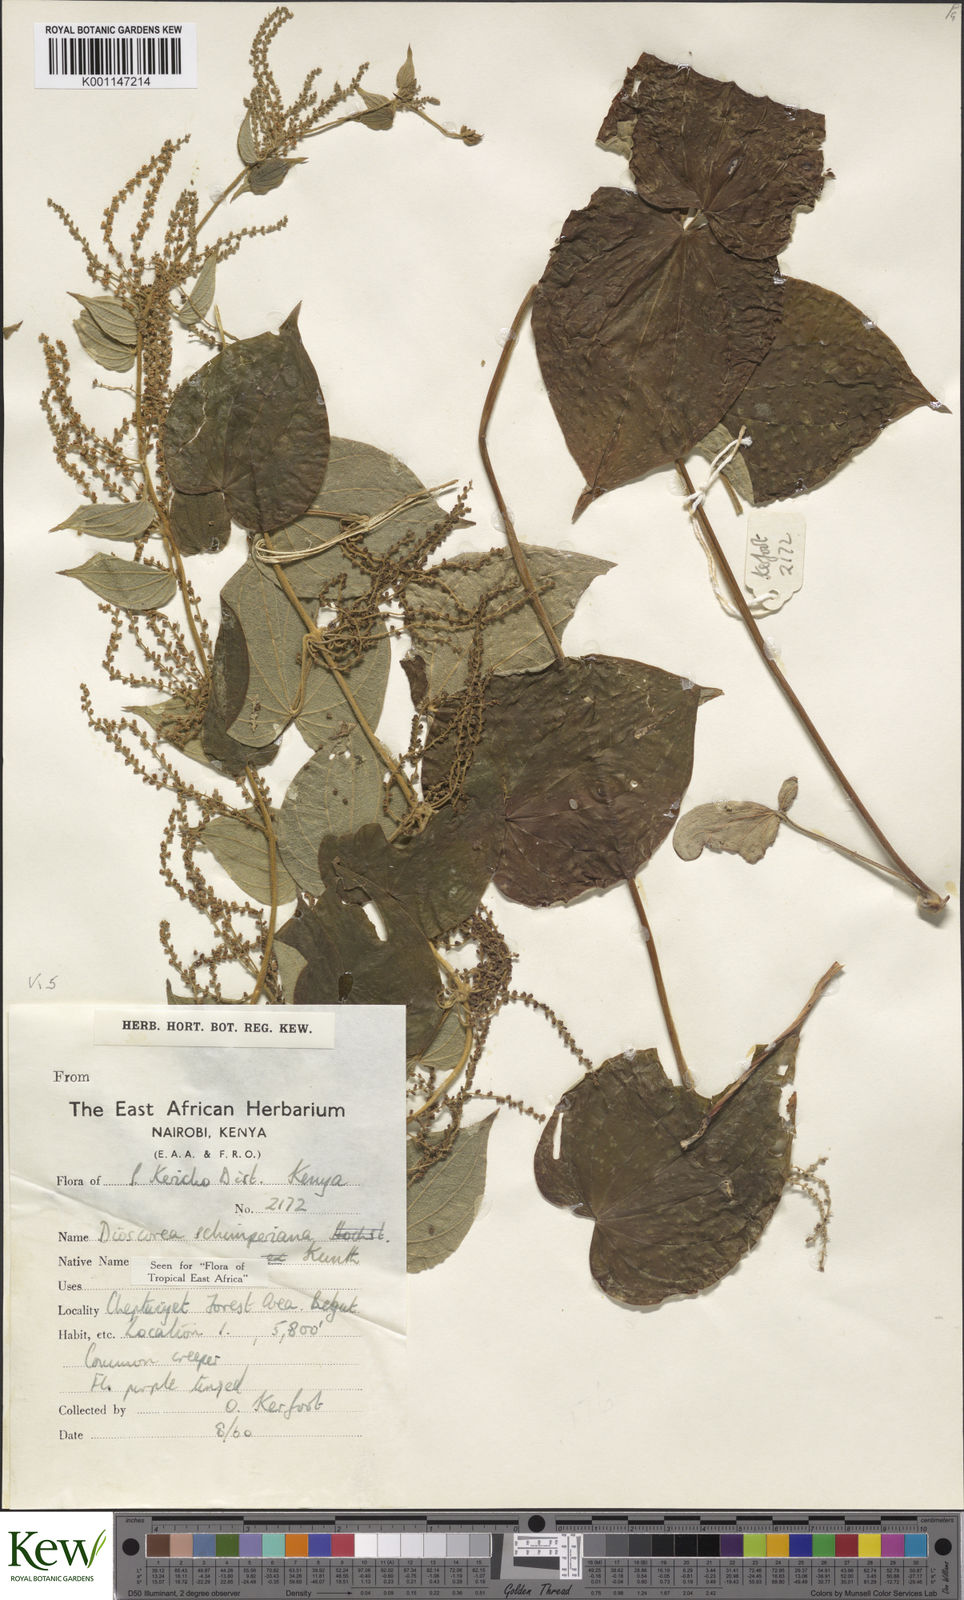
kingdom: Plantae
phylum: Tracheophyta
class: Liliopsida
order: Dioscoreales
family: Dioscoreaceae
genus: Dioscorea
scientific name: Dioscorea schimperiana
